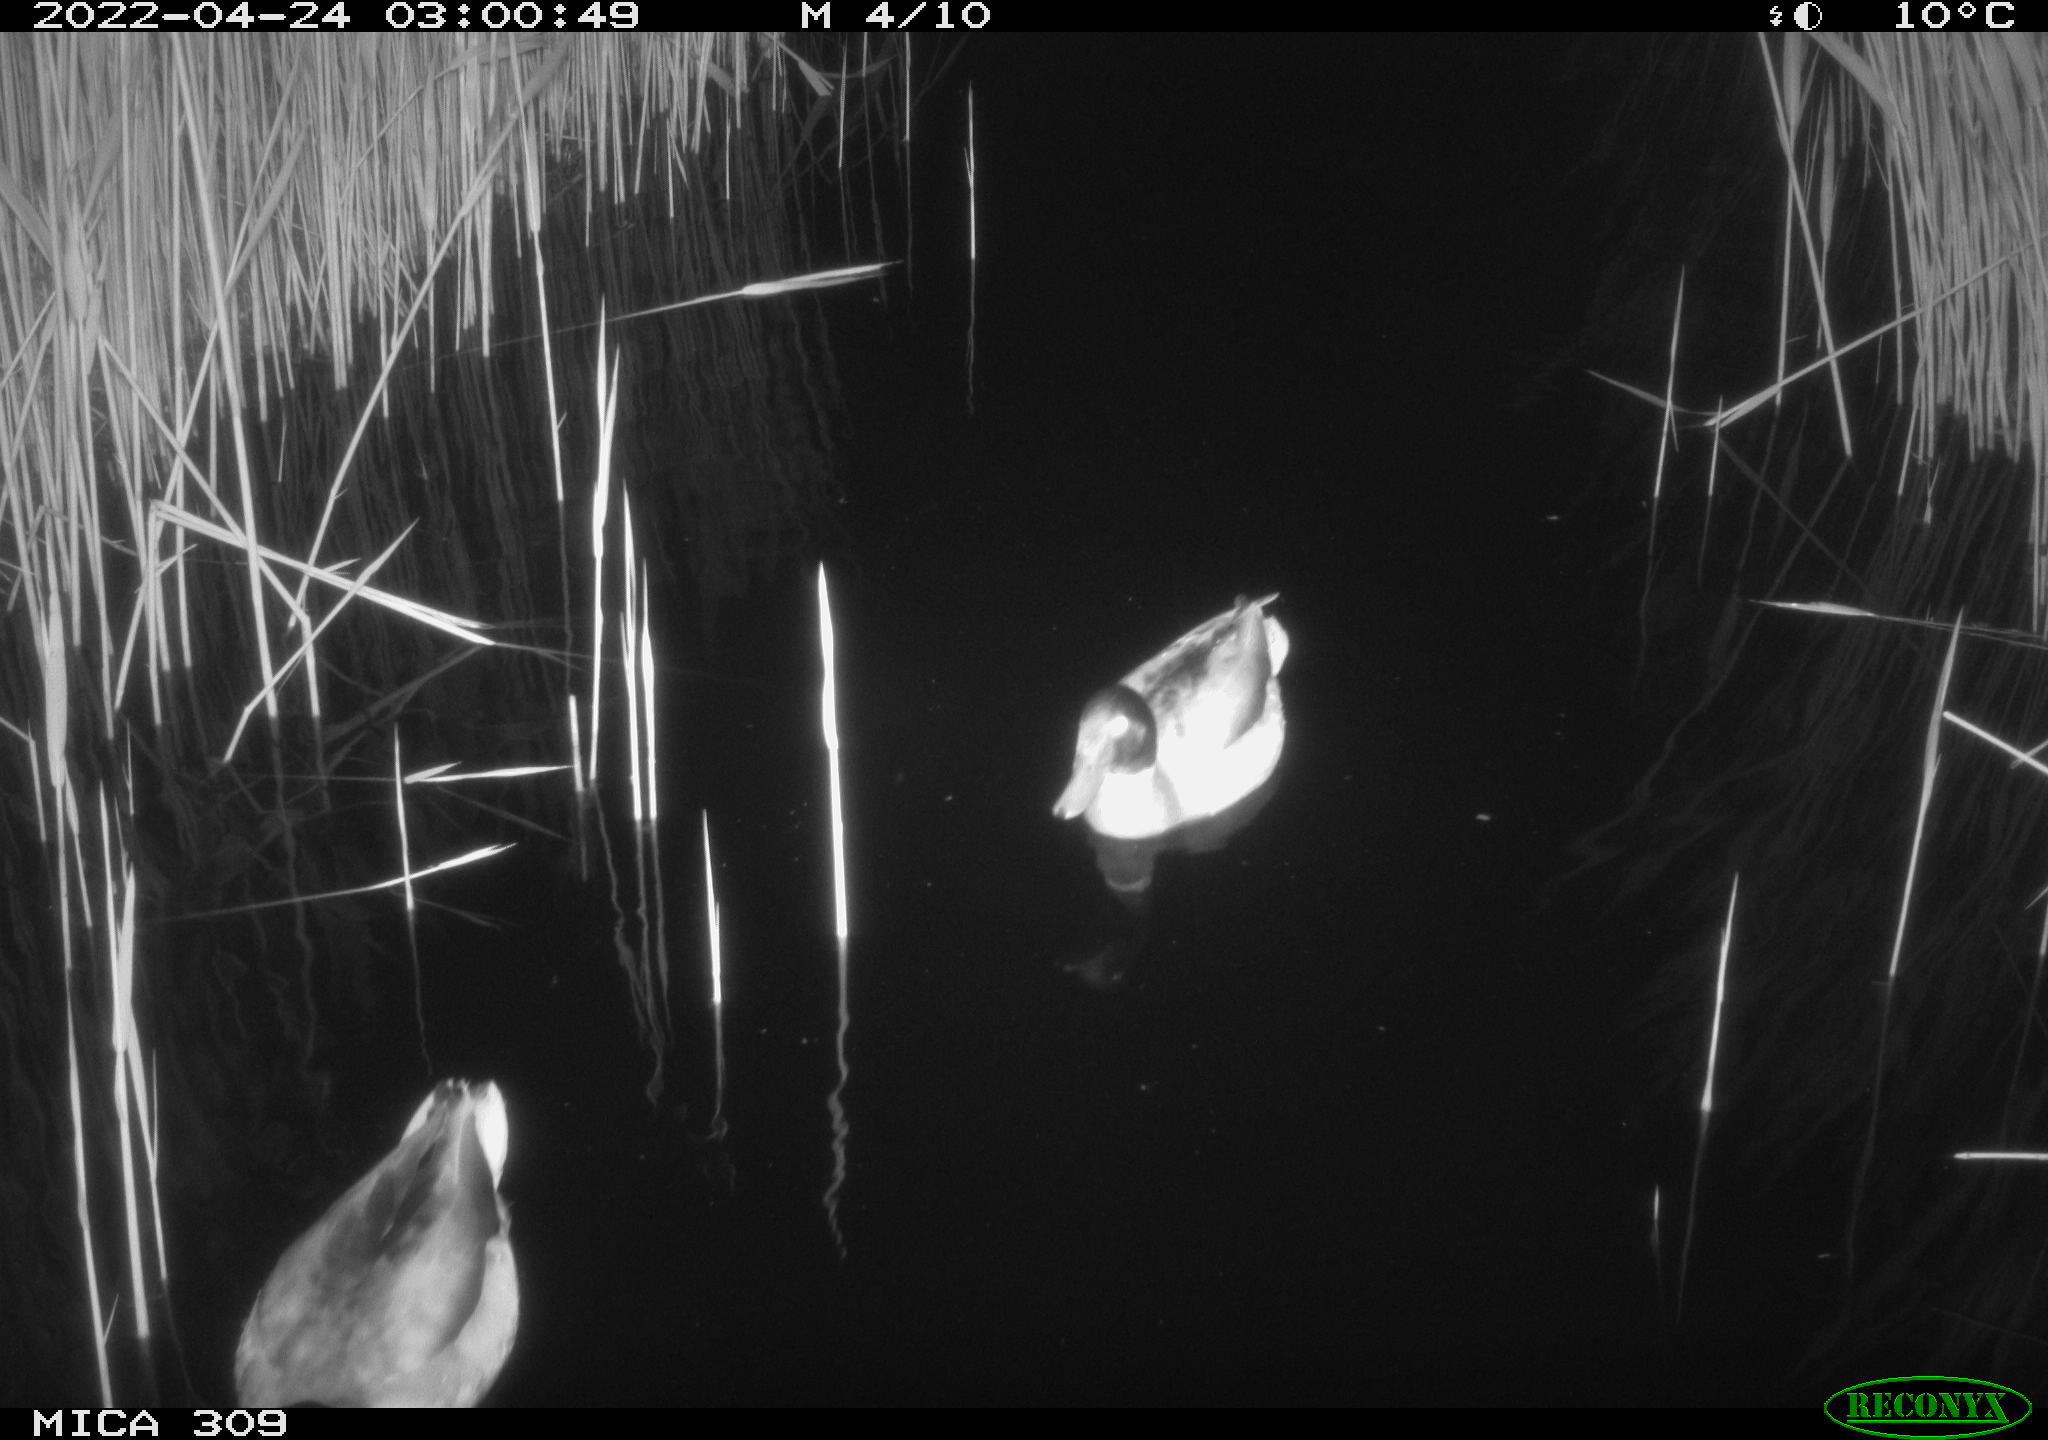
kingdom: Animalia
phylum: Chordata
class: Aves
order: Anseriformes
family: Anatidae
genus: Anas
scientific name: Anas platyrhynchos
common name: Mallard
